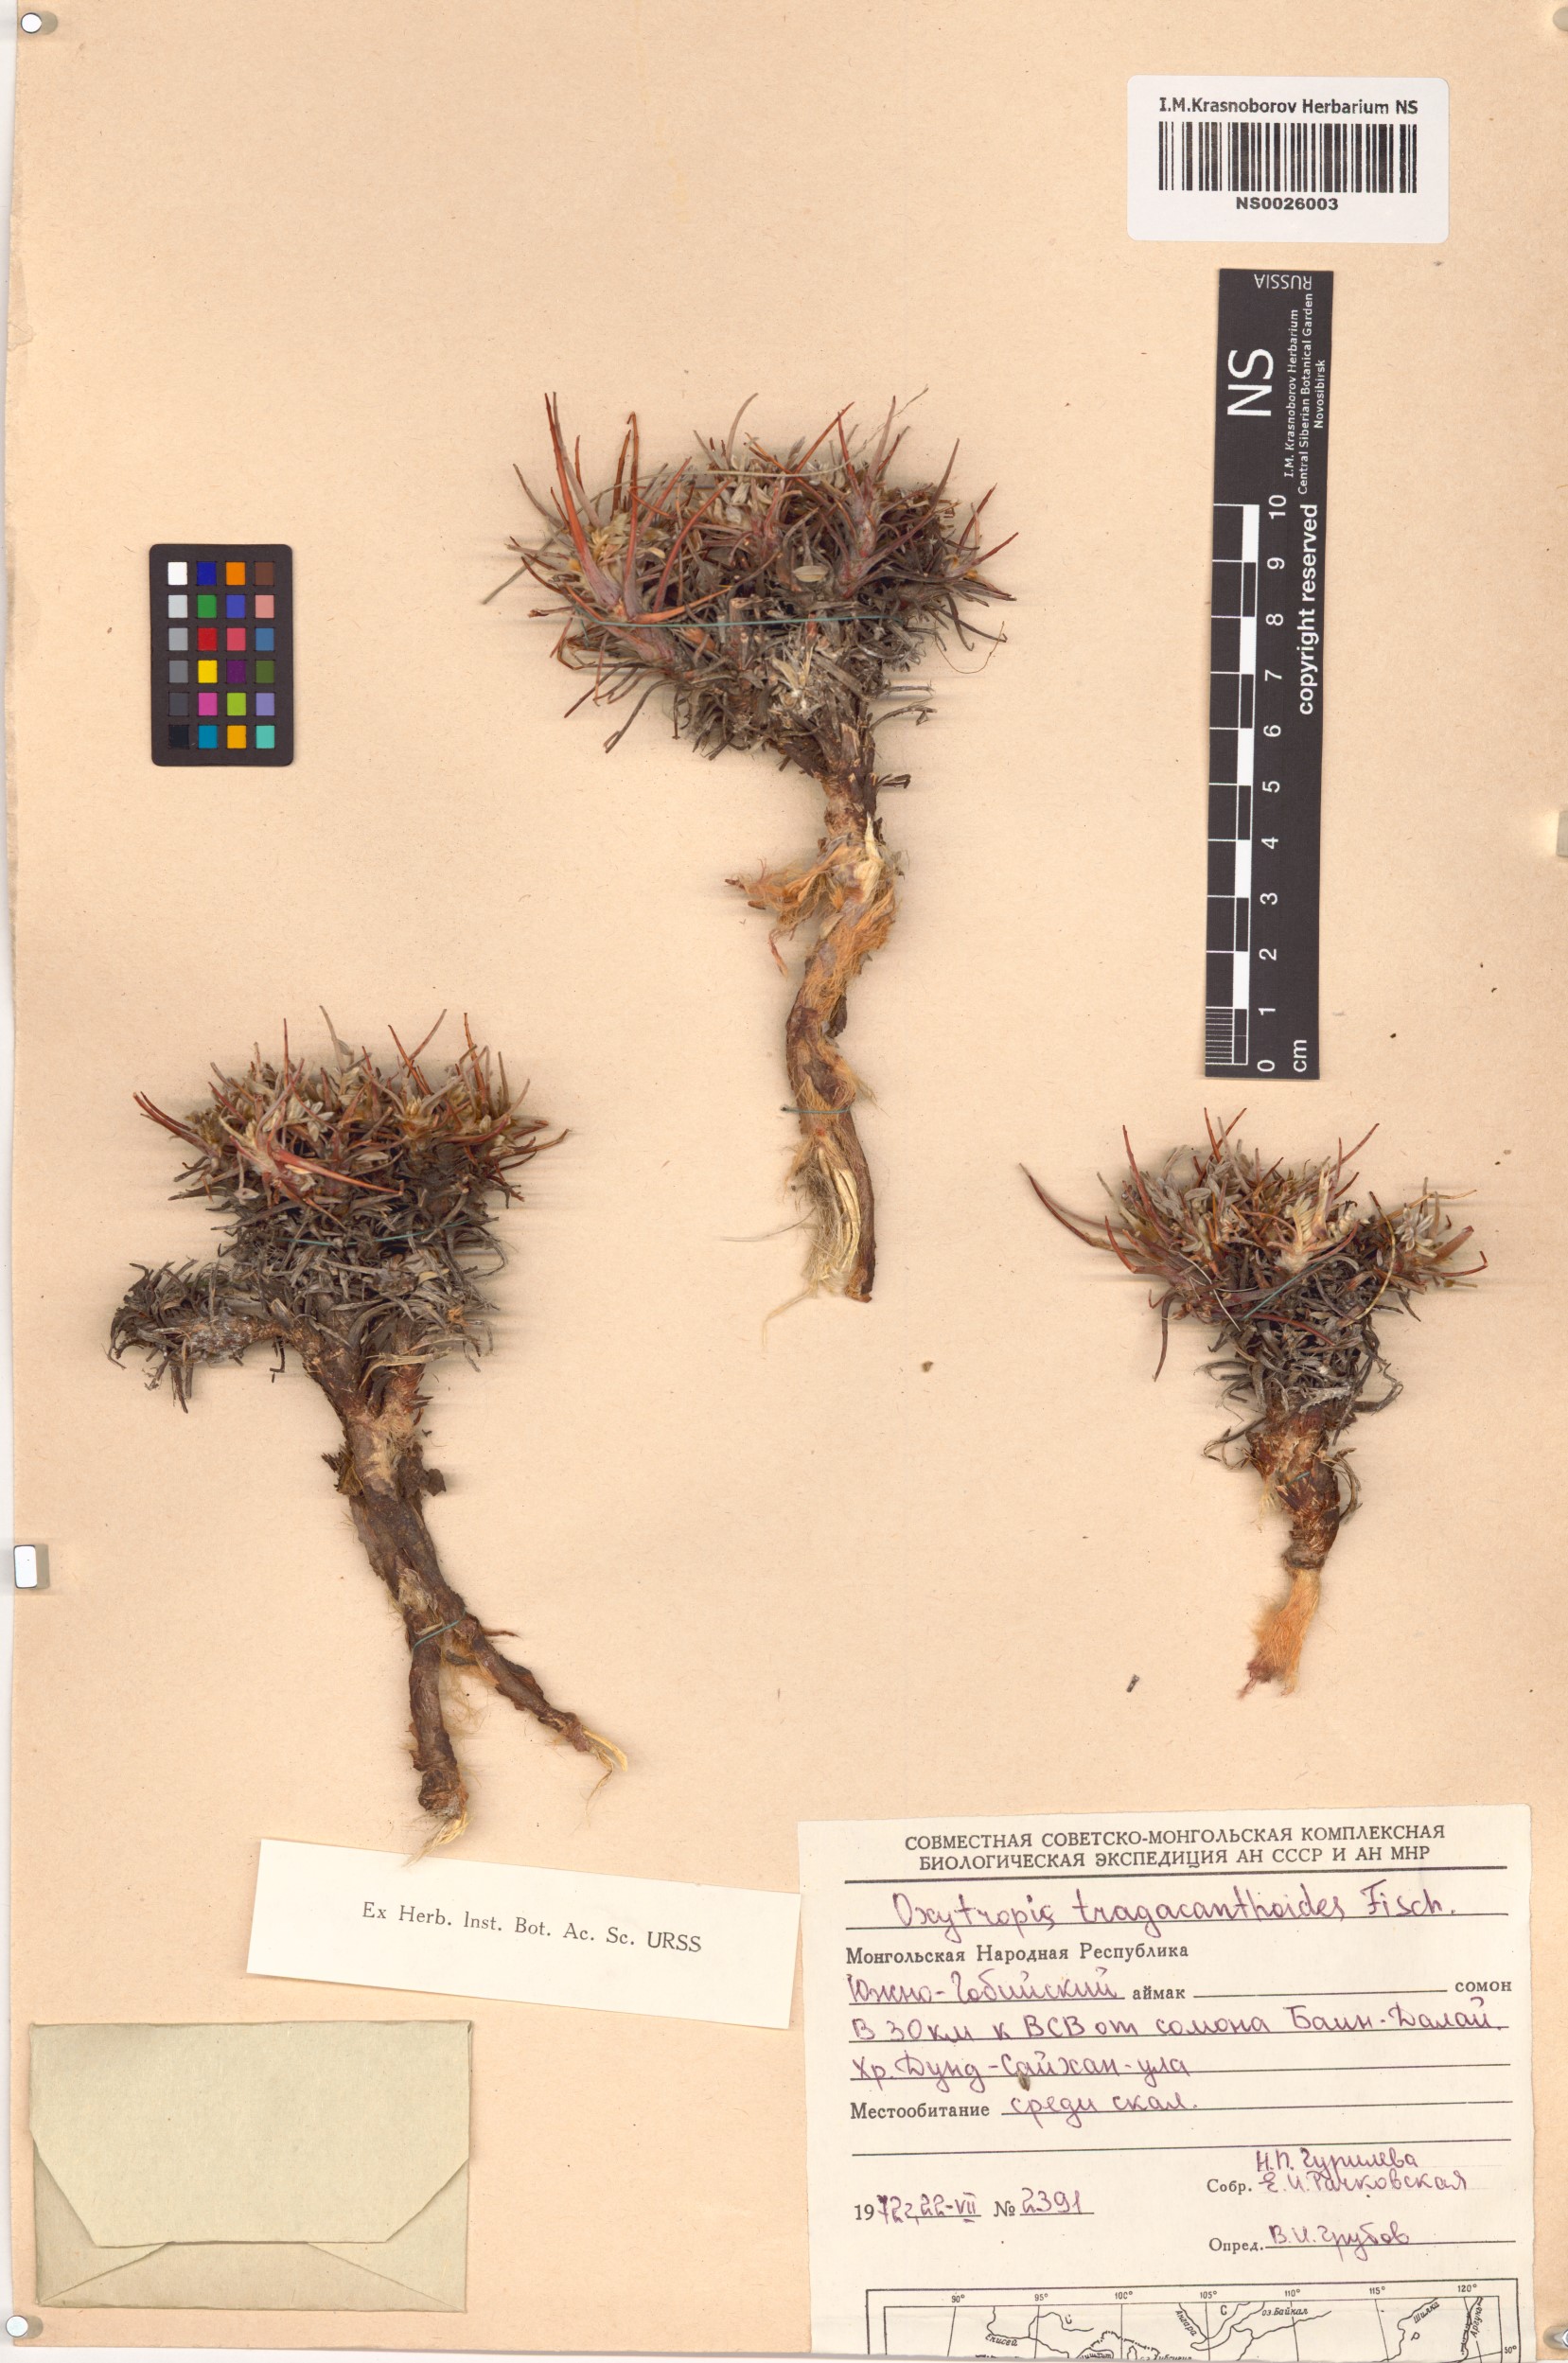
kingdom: Plantae
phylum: Tracheophyta
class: Magnoliopsida
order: Fabales
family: Fabaceae
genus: Oxytropis
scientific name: Oxytropis tragacanthoides
